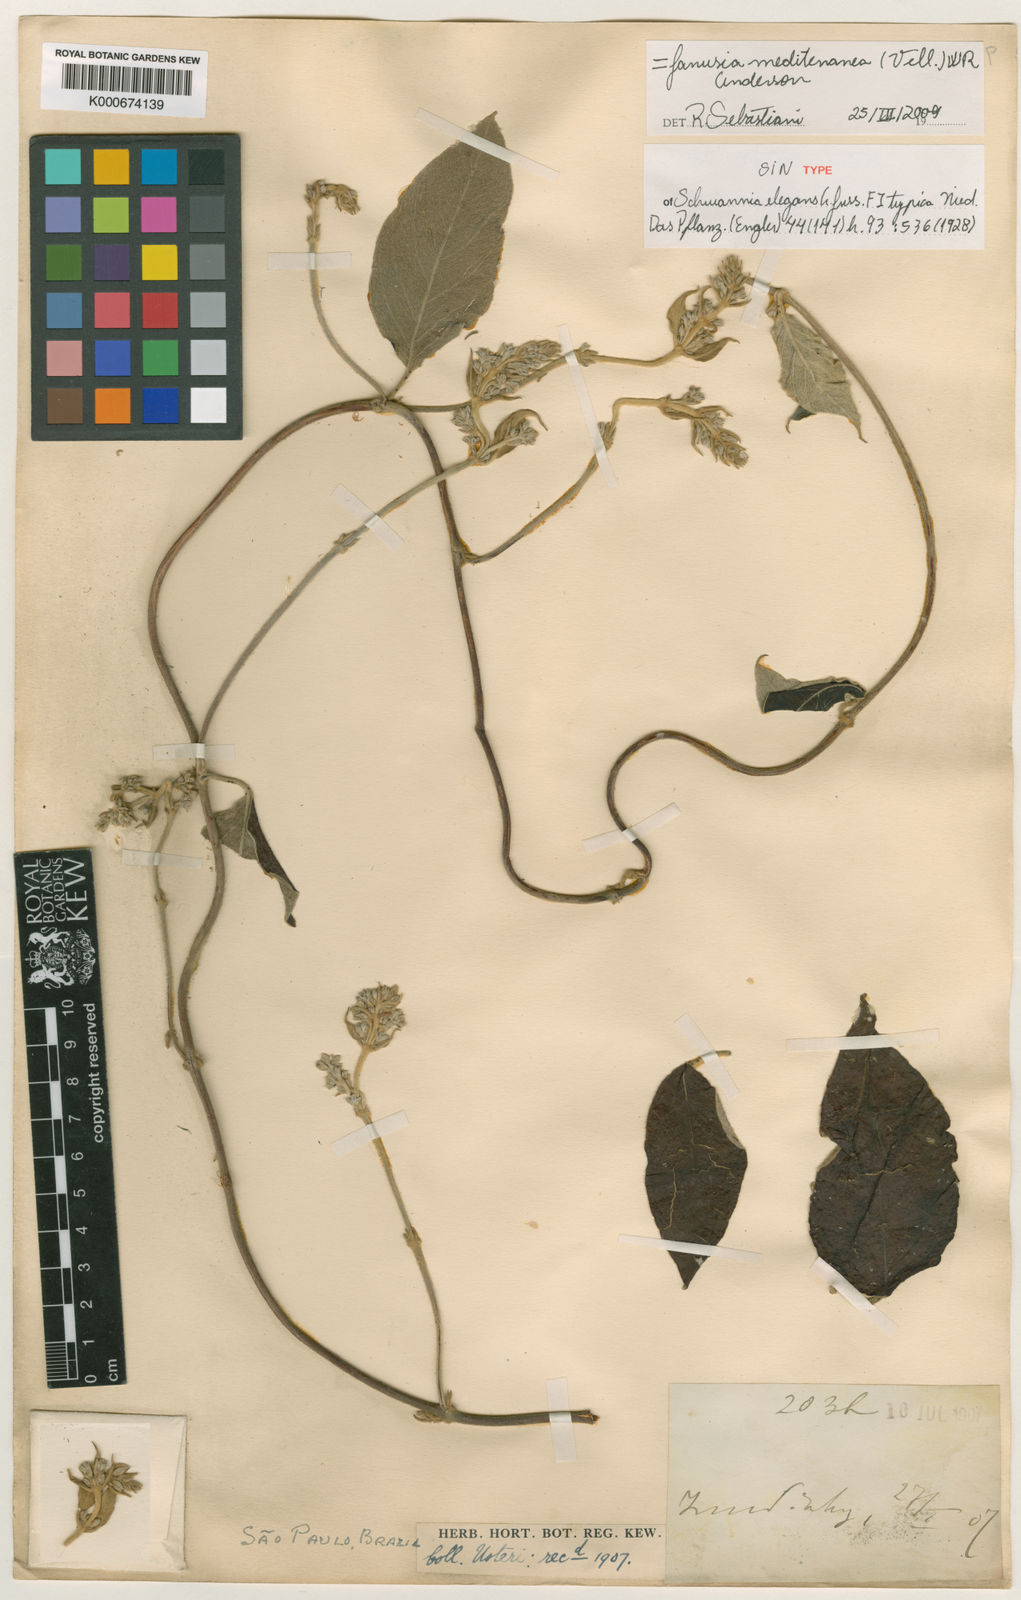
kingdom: Plantae
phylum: Tracheophyta
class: Magnoliopsida
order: Malpighiales
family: Malpighiaceae
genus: Janusia
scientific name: Janusia mediterranea
